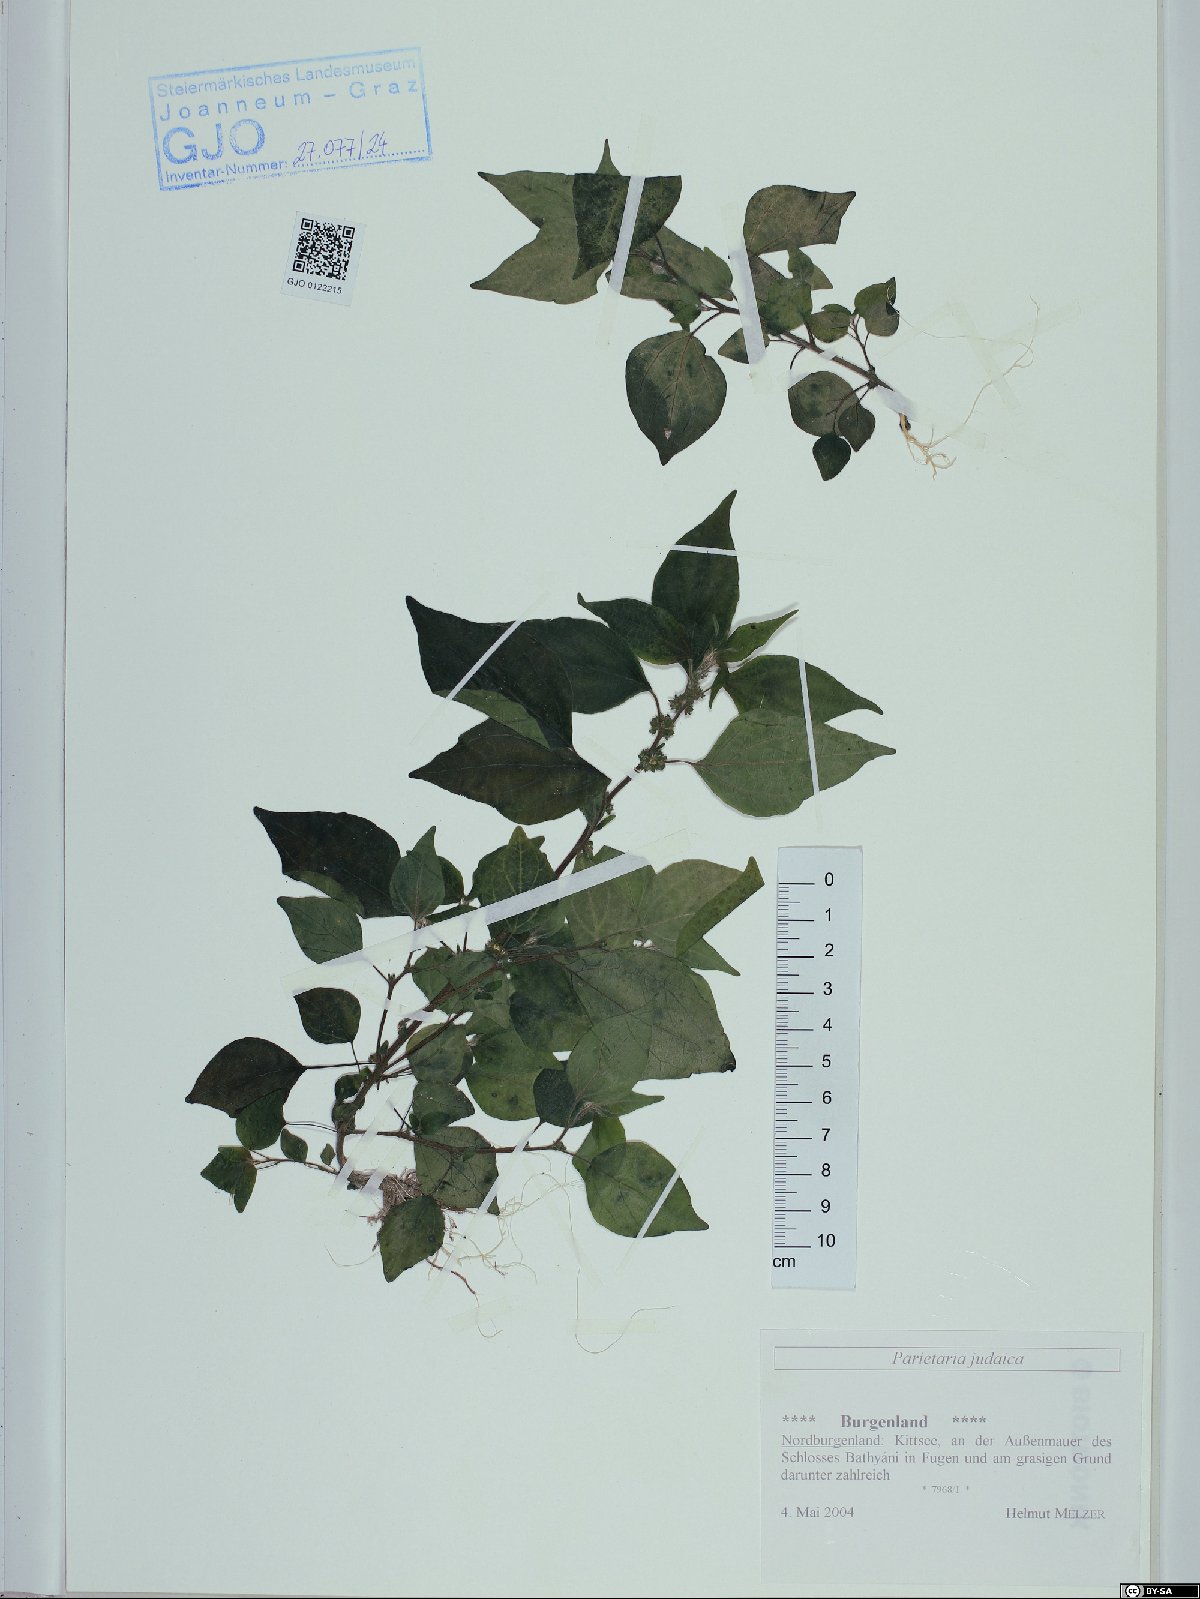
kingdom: Plantae
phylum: Tracheophyta
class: Magnoliopsida
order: Rosales
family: Urticaceae
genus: Parietaria
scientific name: Parietaria judaica
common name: Pellitory-of-the-wall
